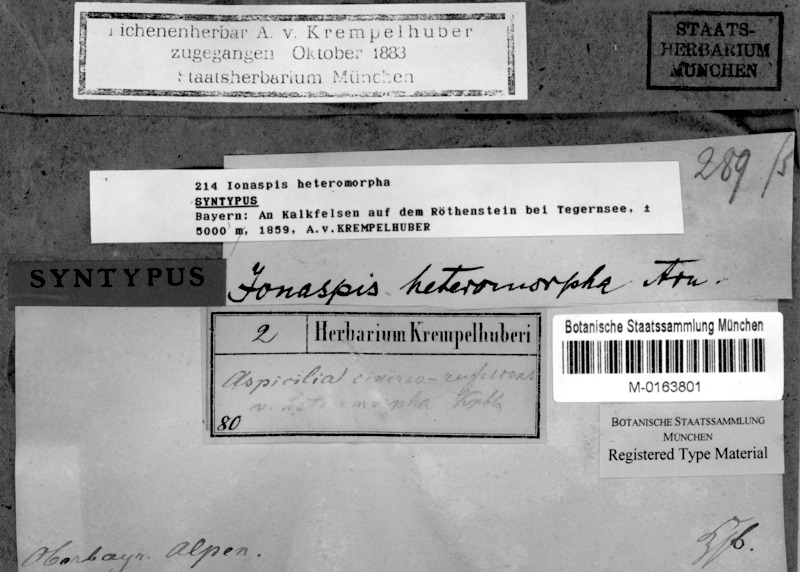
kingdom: Fungi
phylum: Ascomycota
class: Lecanoromycetes
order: Hymeneliales
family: Hymeneliaceae
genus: Hymenelia
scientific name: Hymenelia heteromorpha
